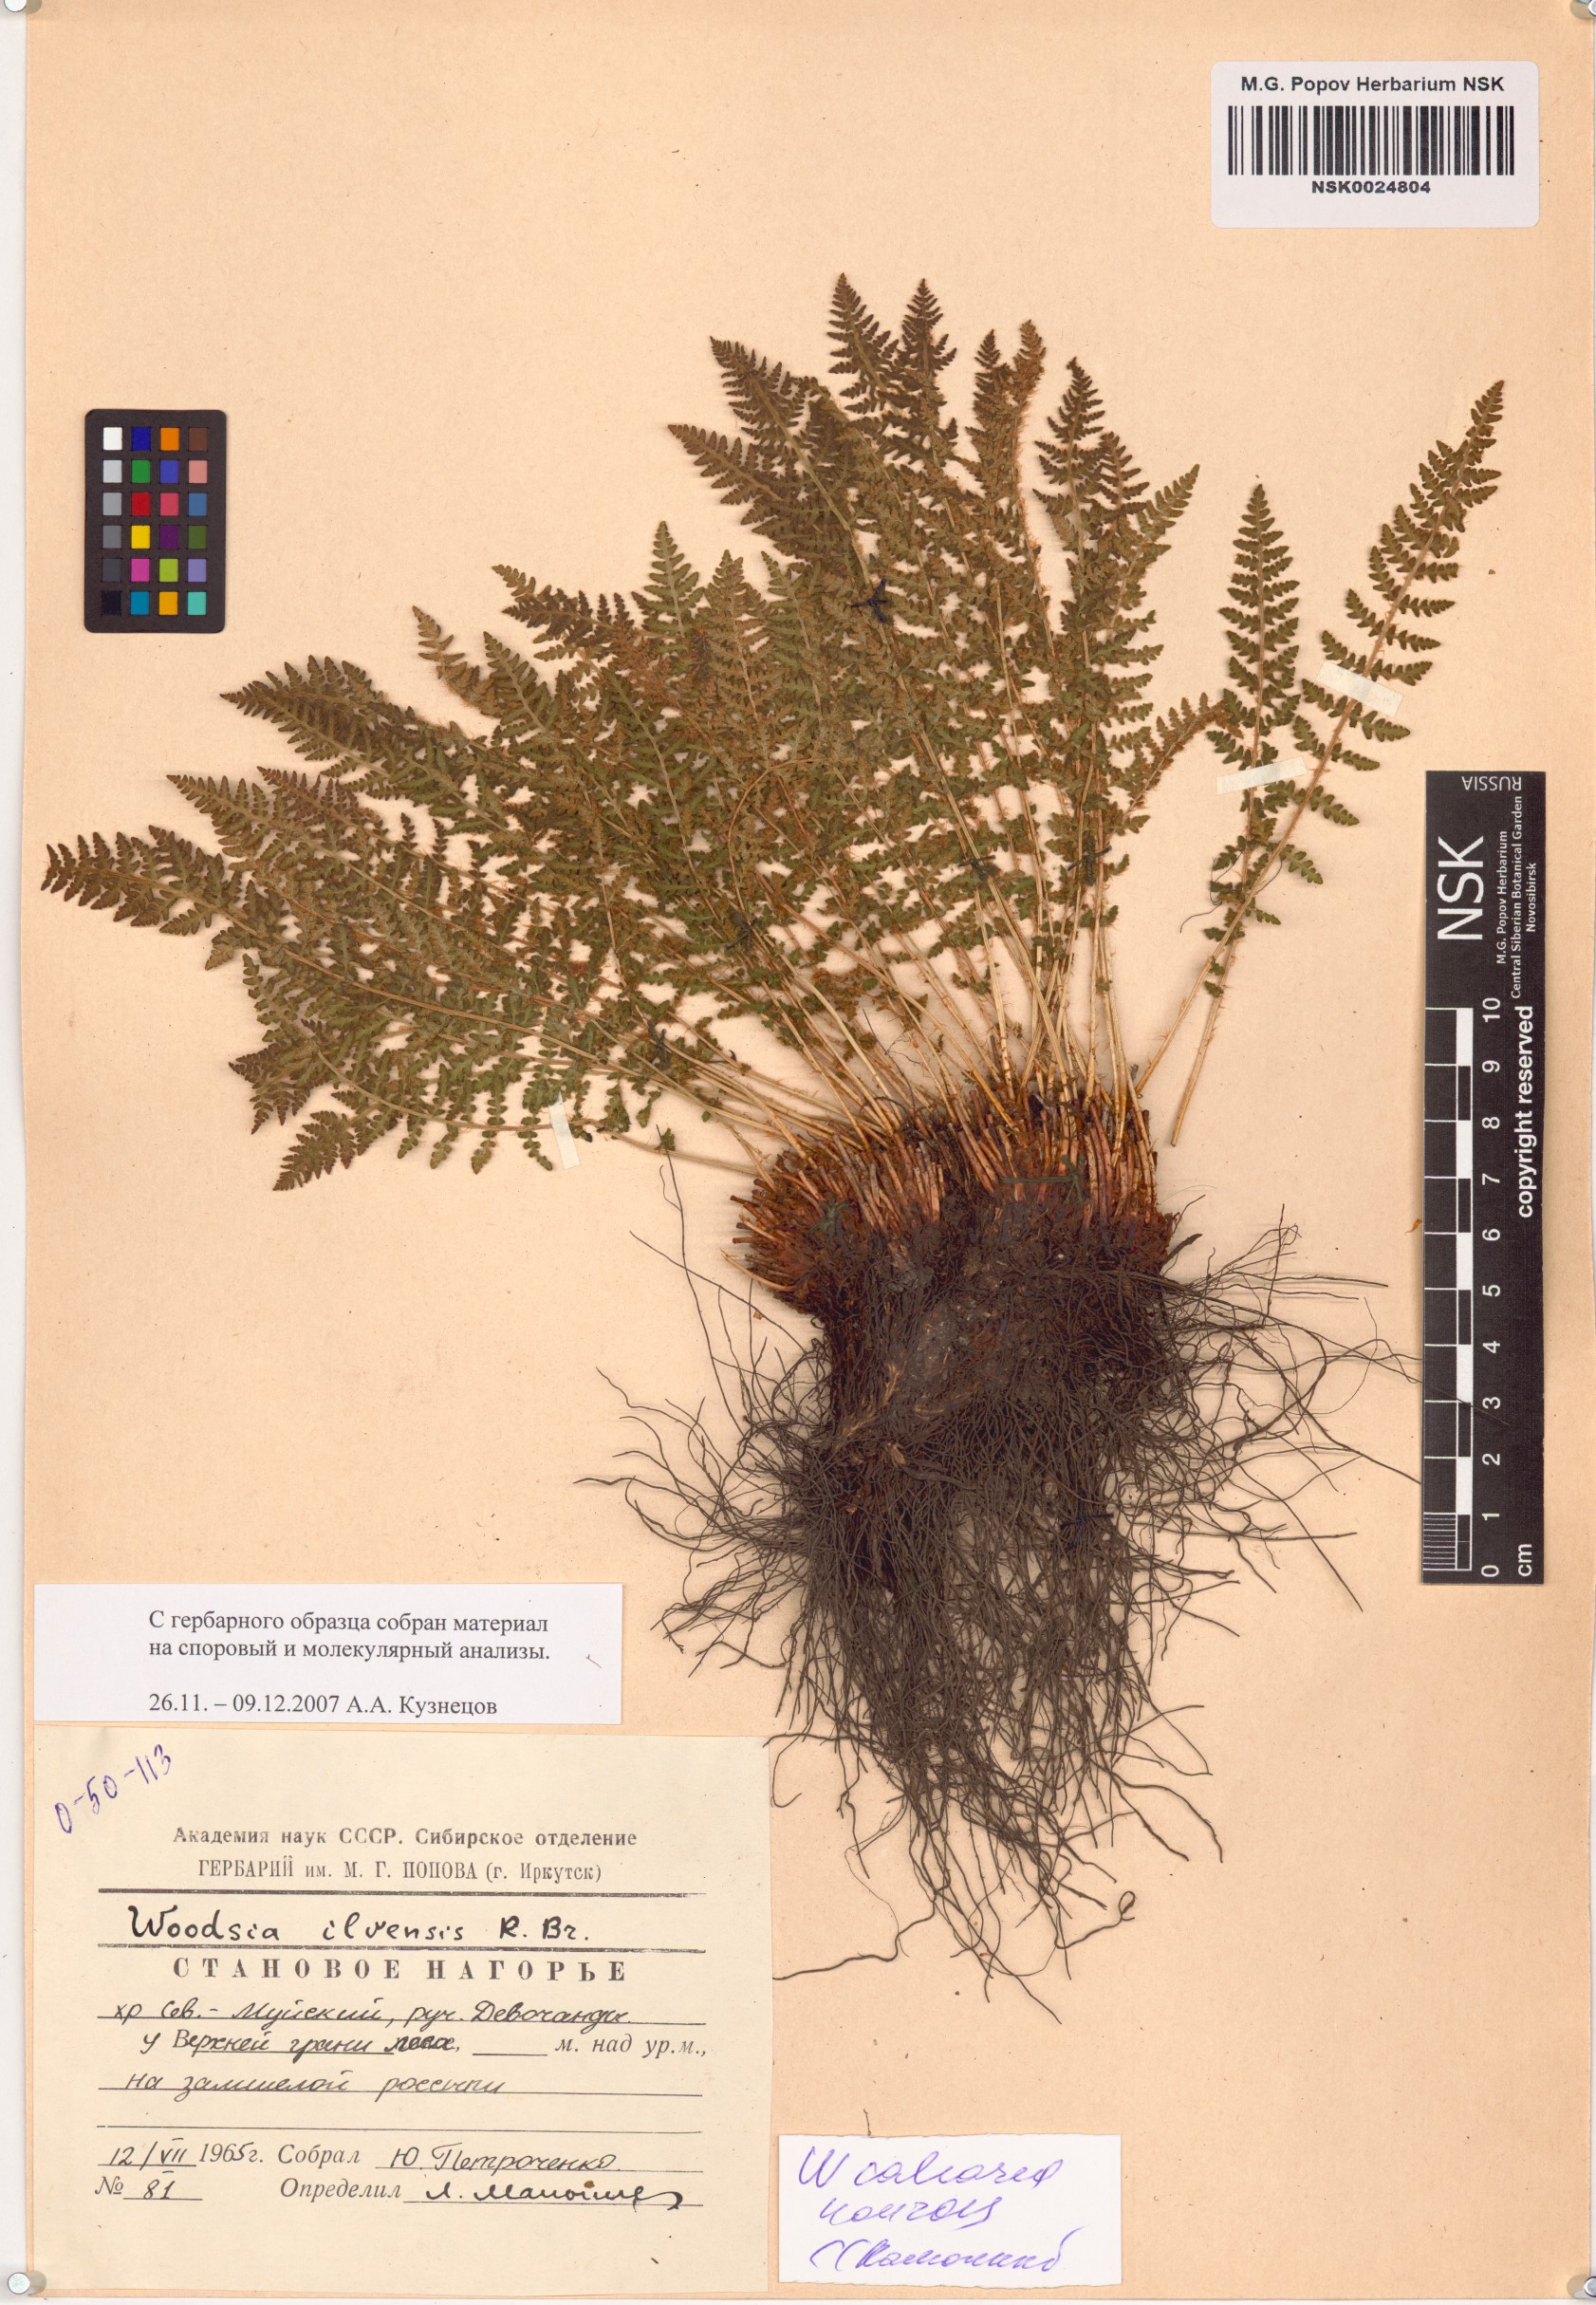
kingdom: Plantae
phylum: Tracheophyta
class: Polypodiopsida
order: Polypodiales
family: Woodsiaceae
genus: Woodsia
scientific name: Woodsia calcarea
